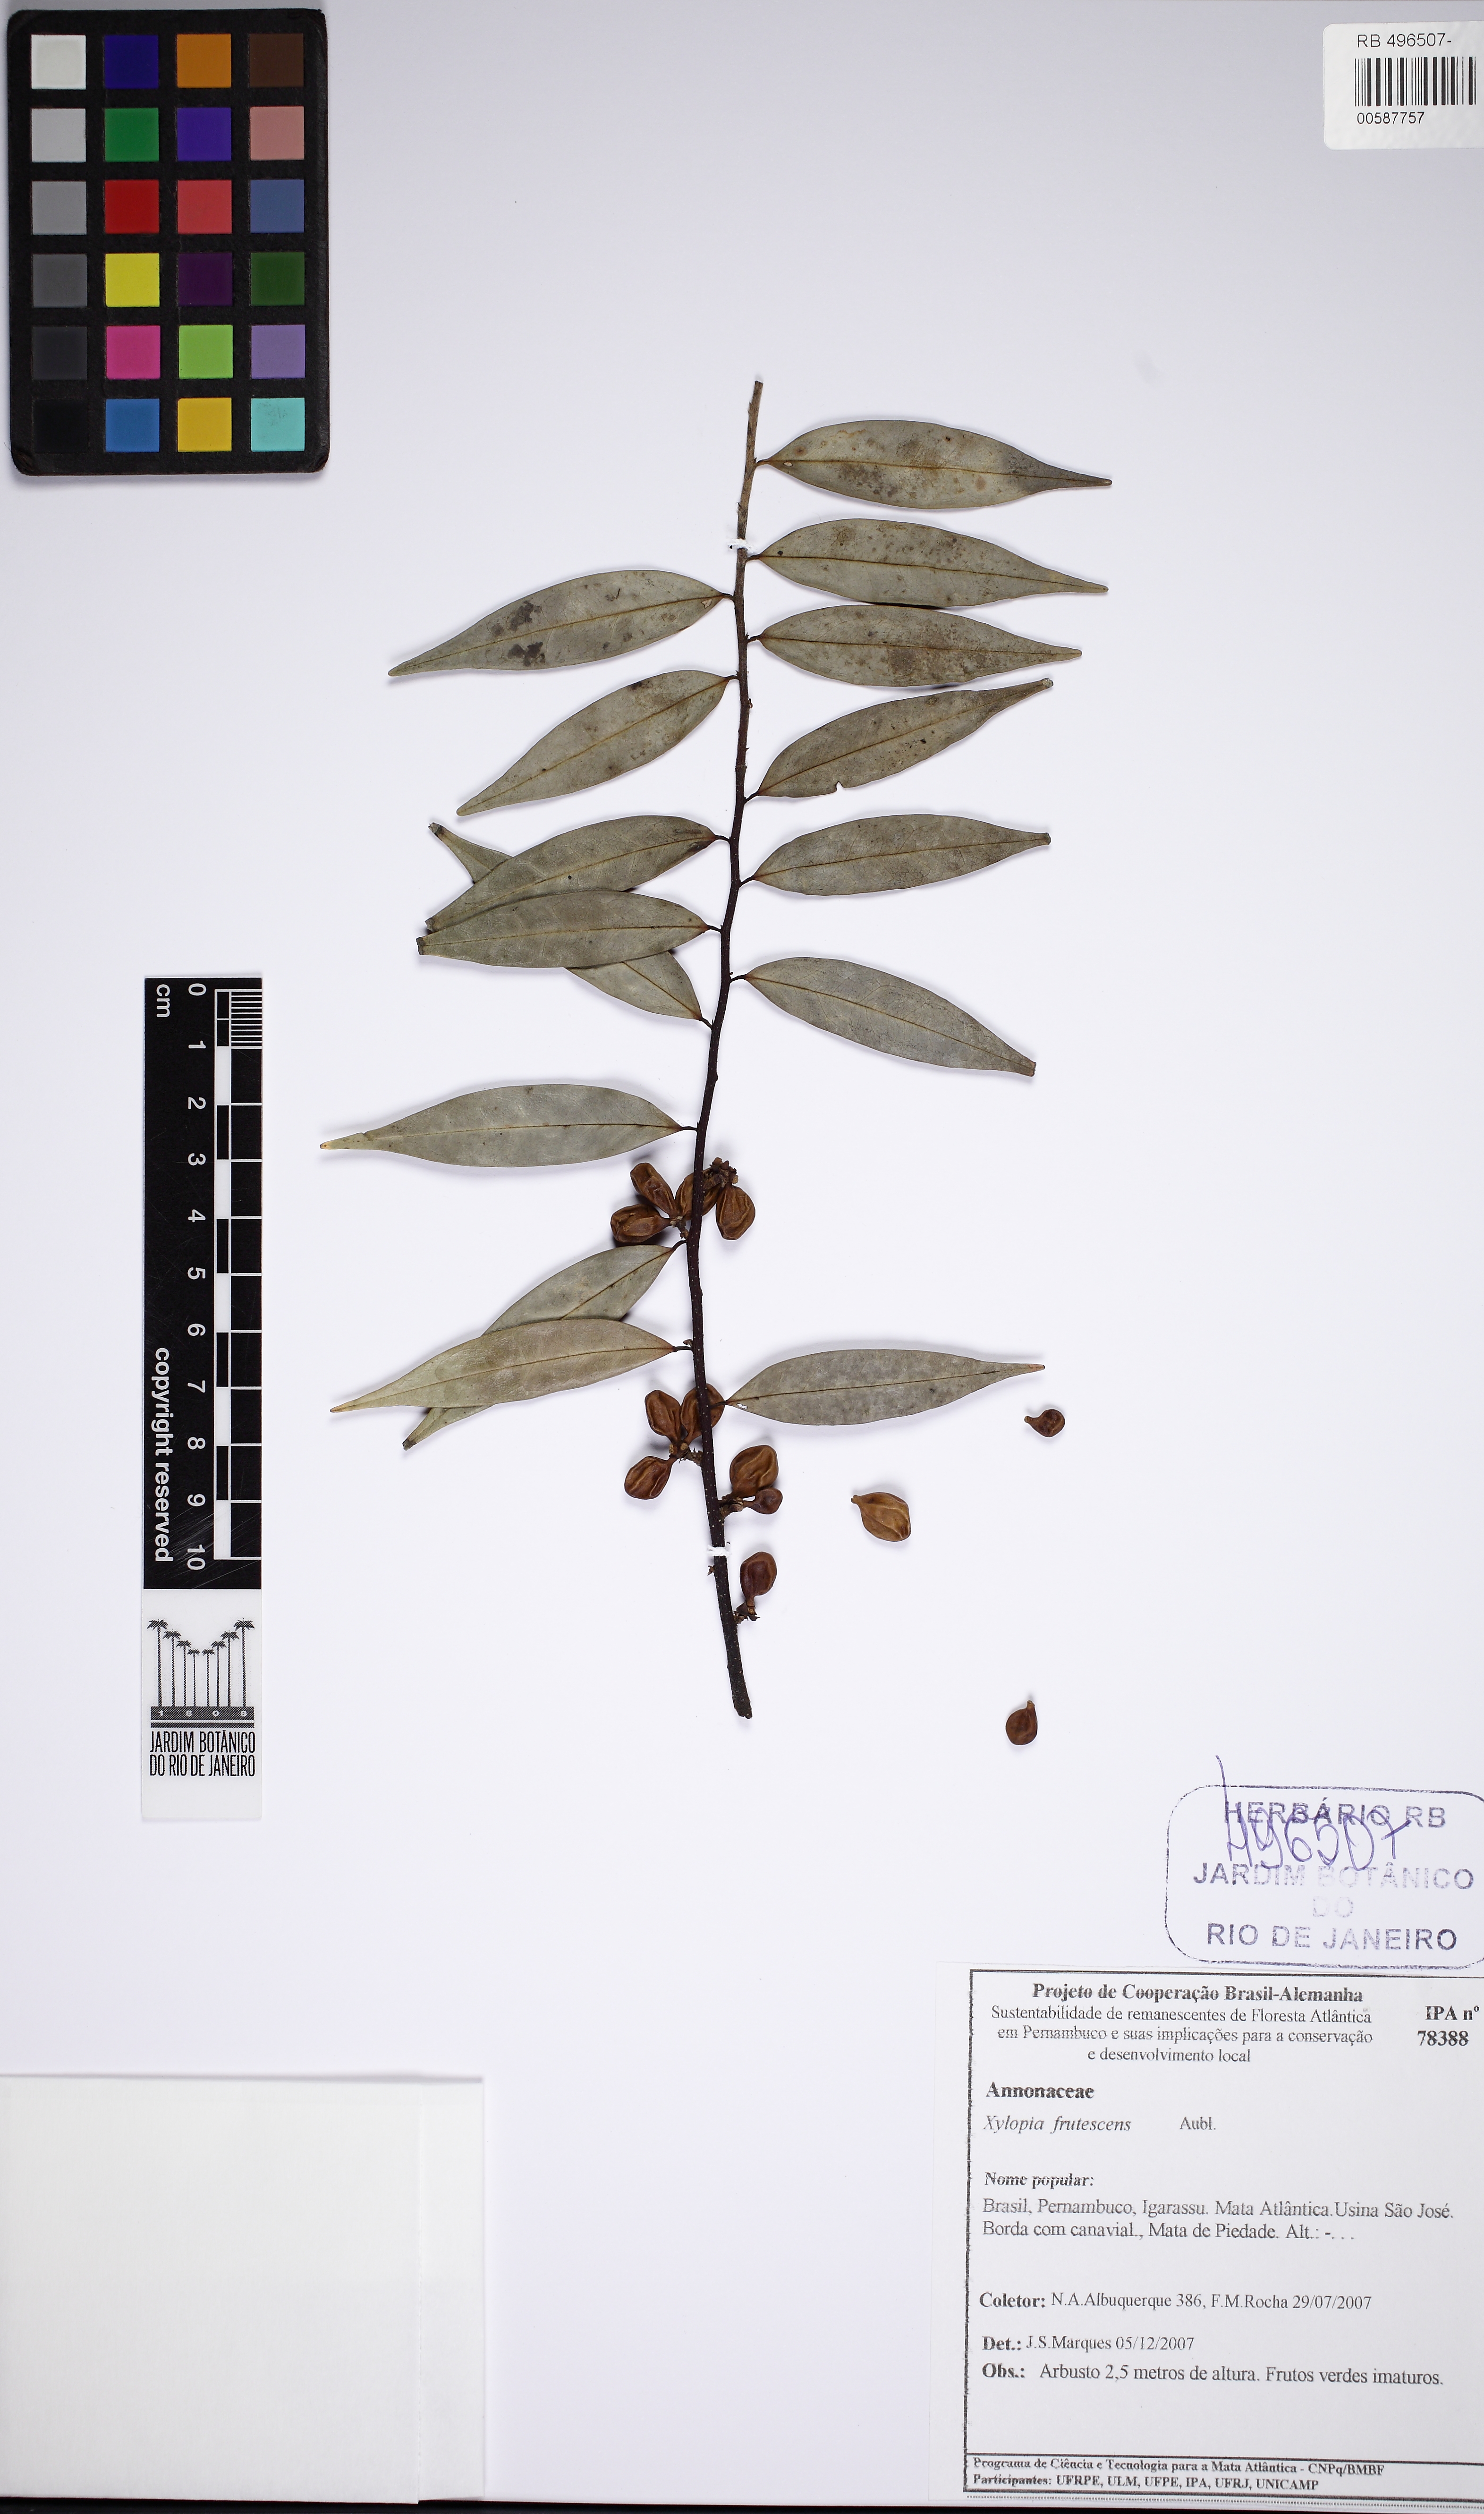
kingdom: Plantae
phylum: Tracheophyta
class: Magnoliopsida
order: Magnoliales
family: Annonaceae
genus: Xylopia
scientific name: Xylopia frutescens
